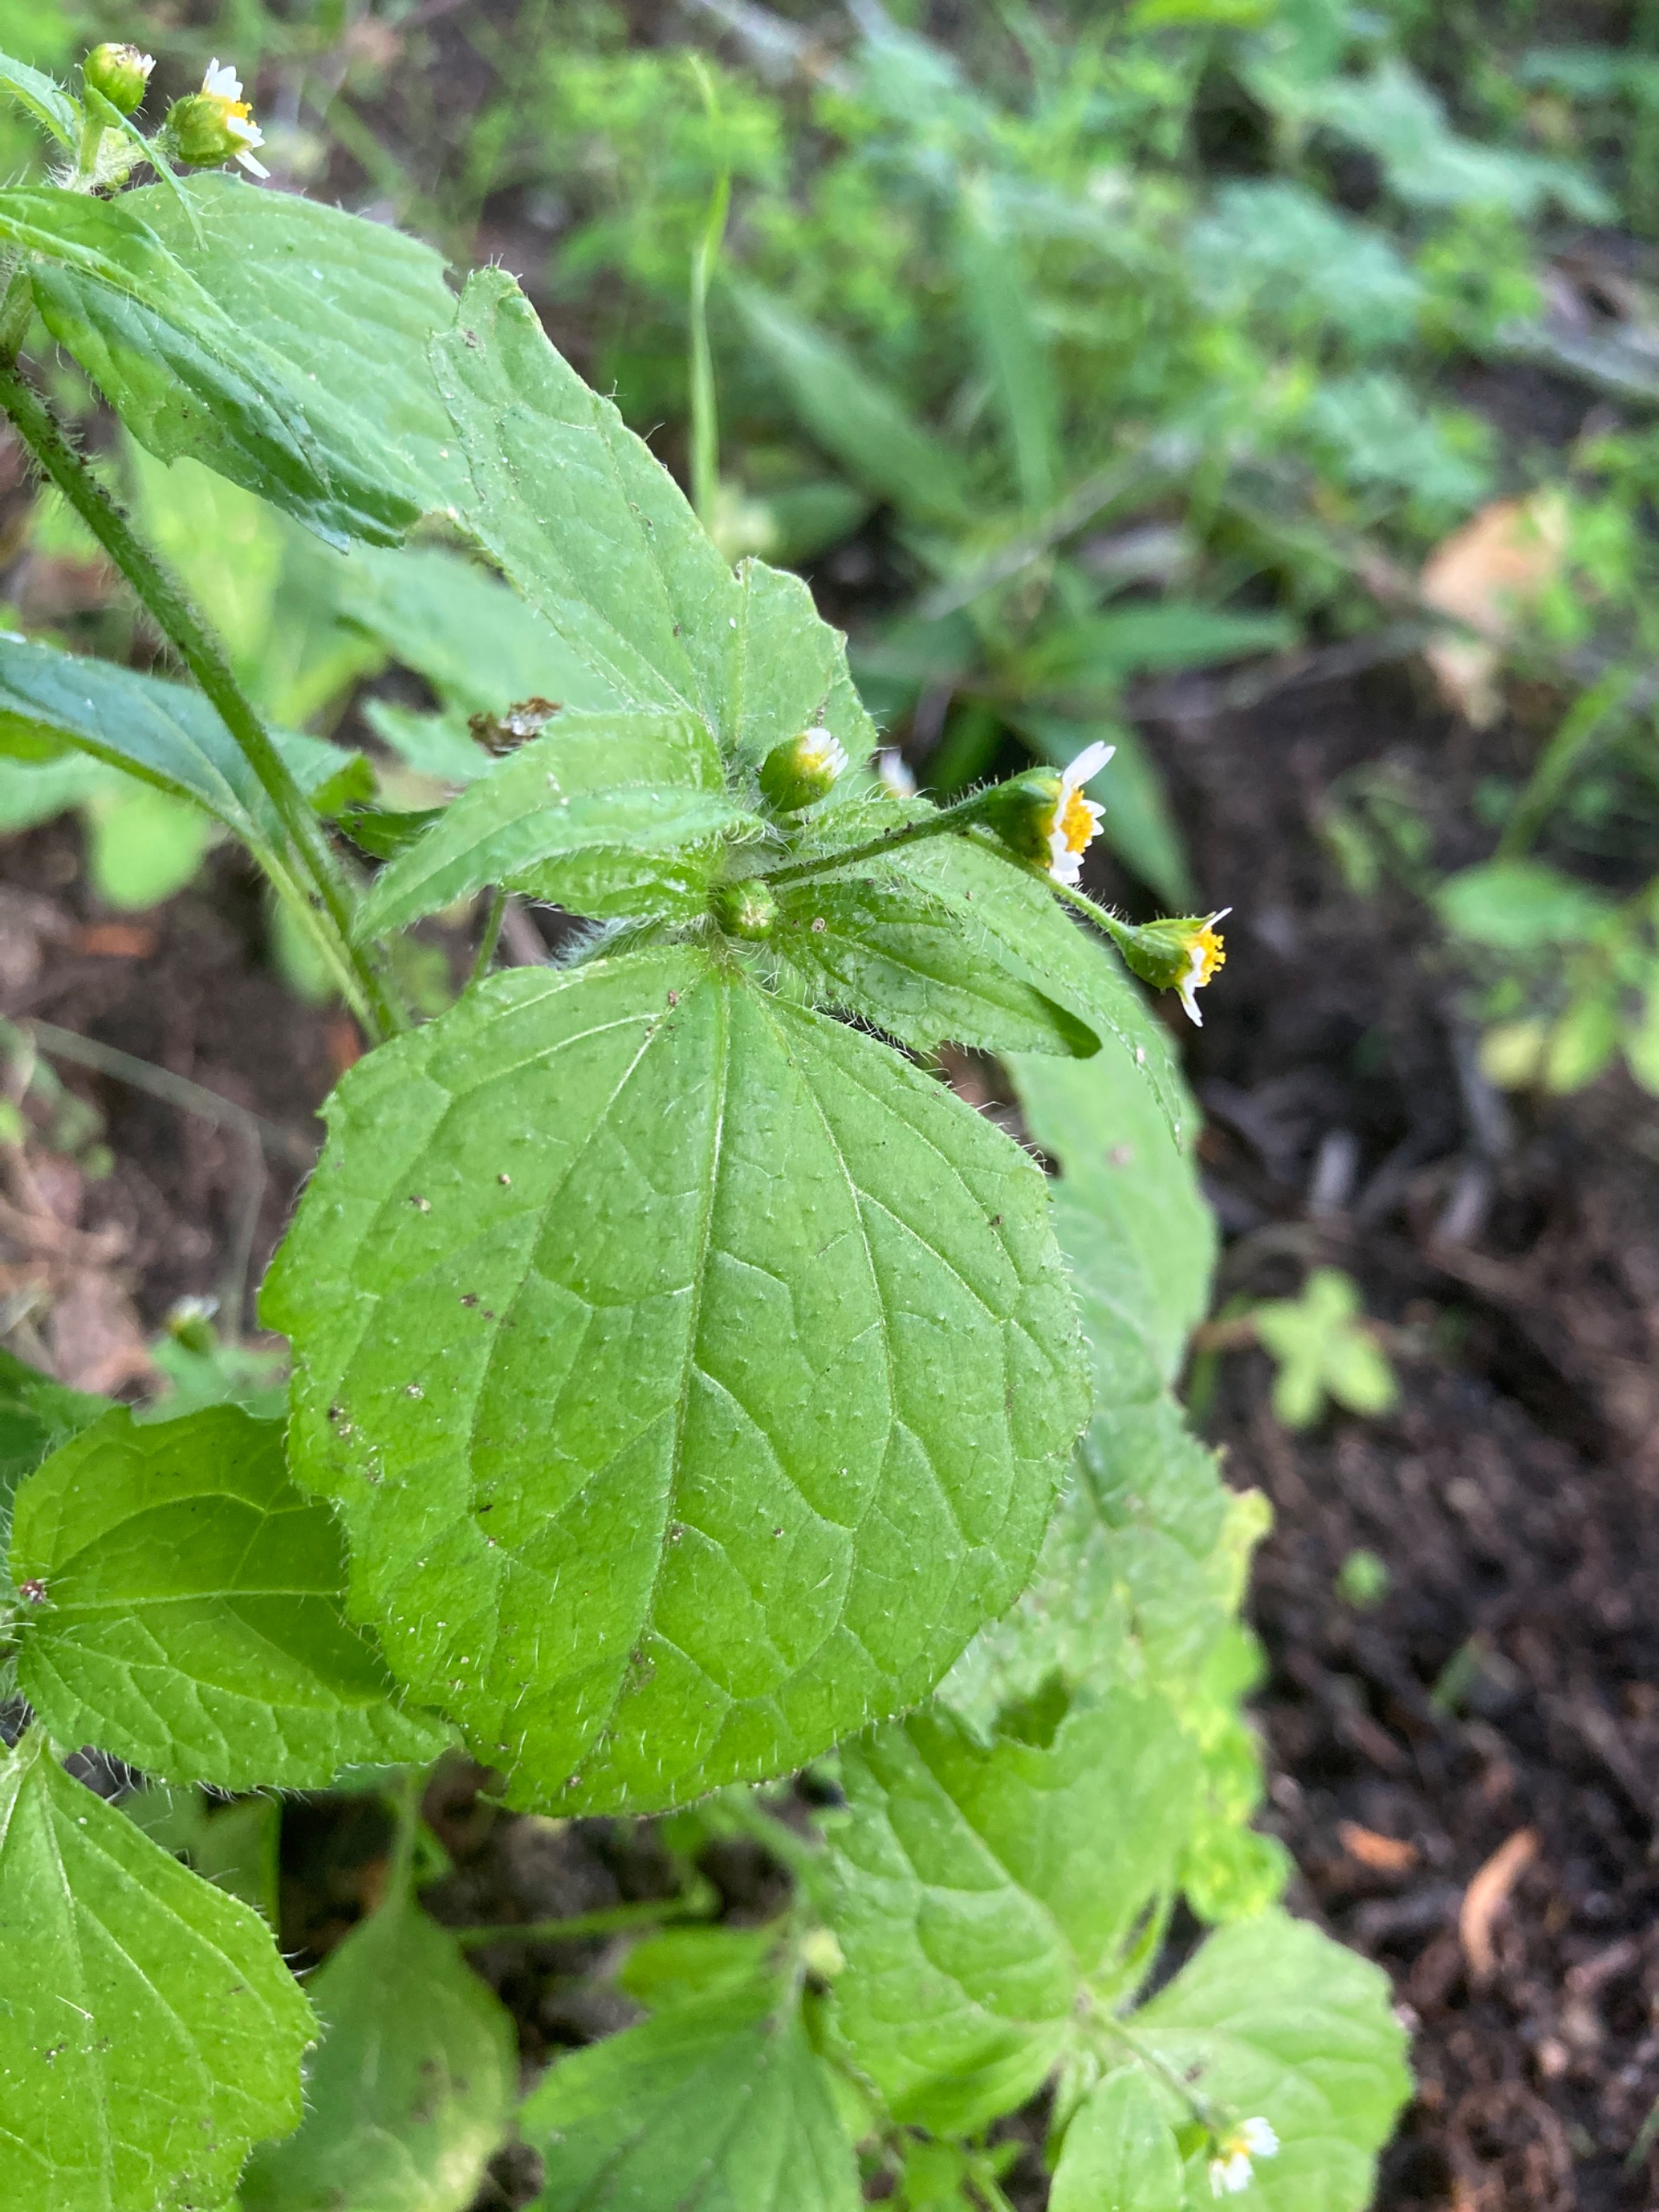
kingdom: Plantae
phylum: Tracheophyta
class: Magnoliopsida
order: Asterales
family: Asteraceae
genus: Galinsoga
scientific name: Galinsoga quadriradiata
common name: Kirtel-kortstråle
